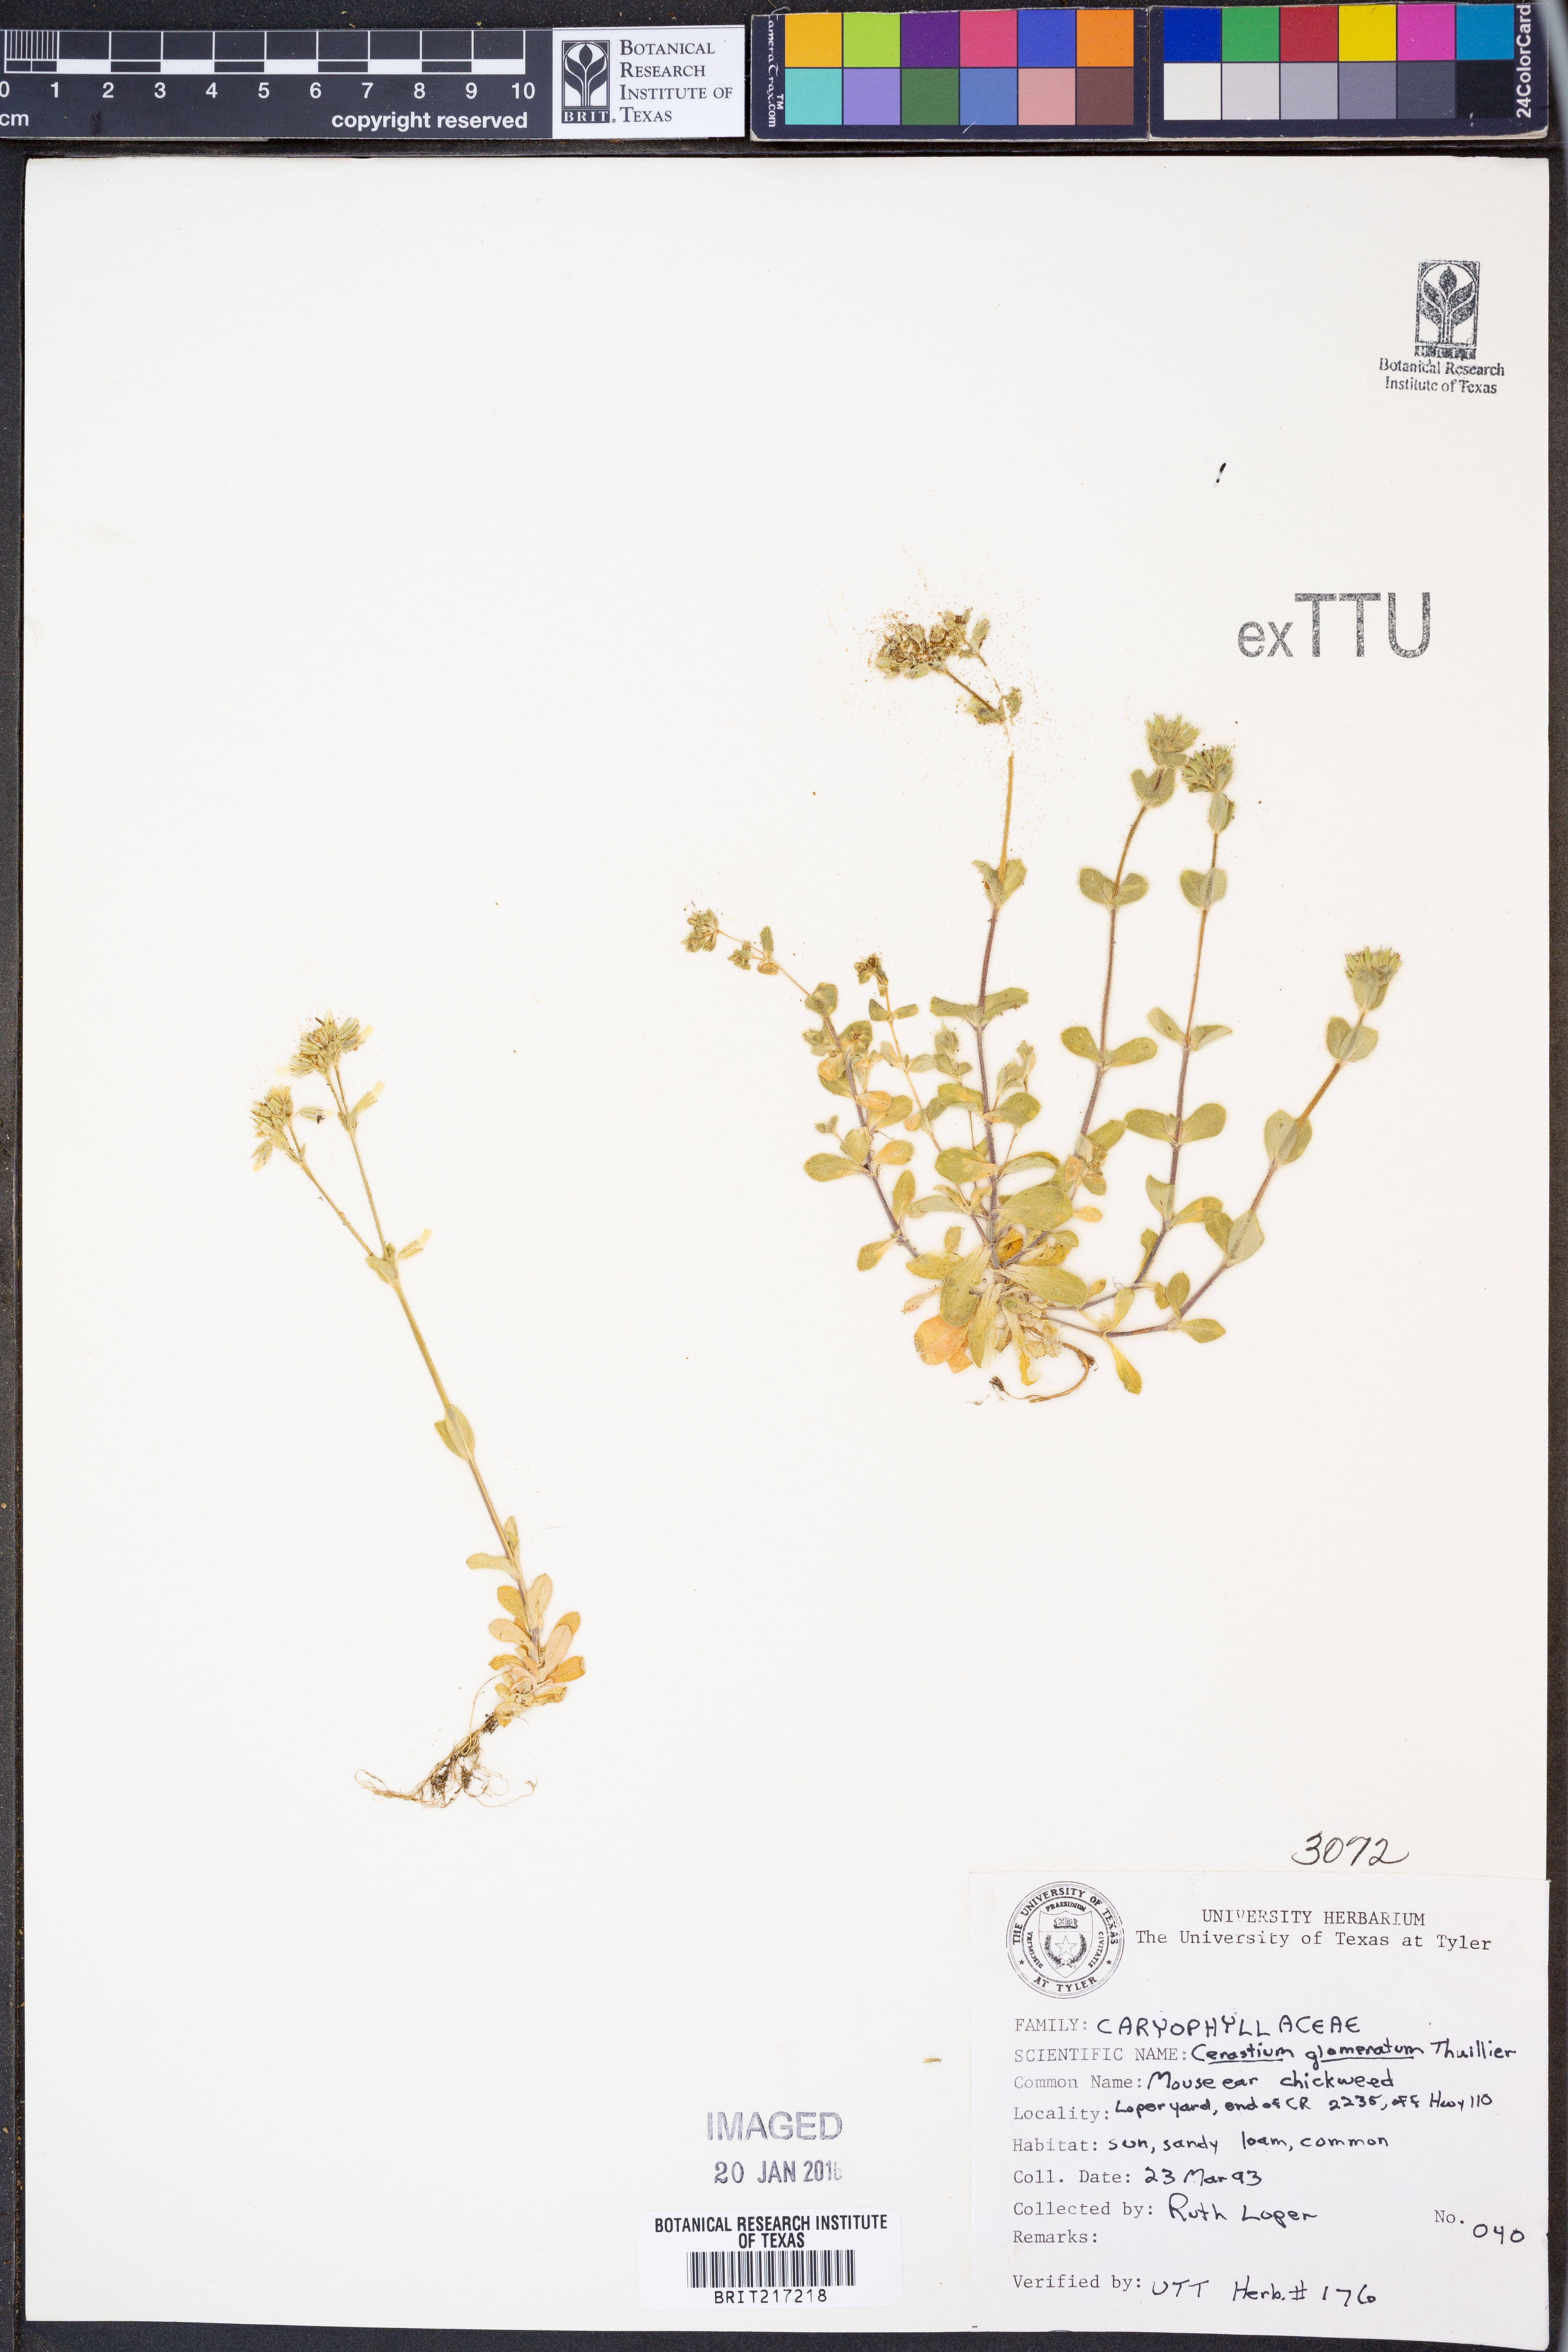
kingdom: Plantae
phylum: Tracheophyta
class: Magnoliopsida
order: Caryophyllales
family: Caryophyllaceae
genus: Cerastium
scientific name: Cerastium glomeratum
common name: Sticky chickweed
